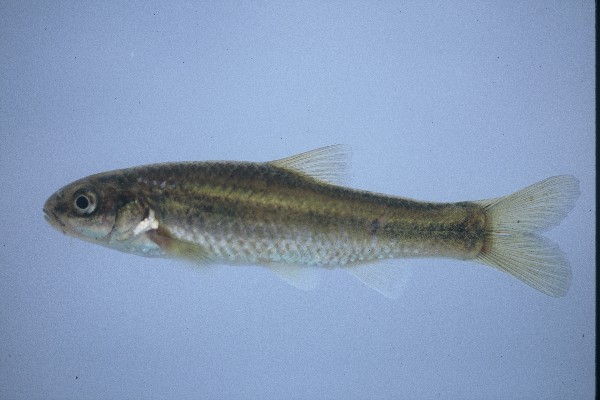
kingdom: Animalia
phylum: Chordata
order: Cypriniformes
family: Cyprinidae
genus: Enteromius
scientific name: Enteromius motebensis
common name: Marico barb
